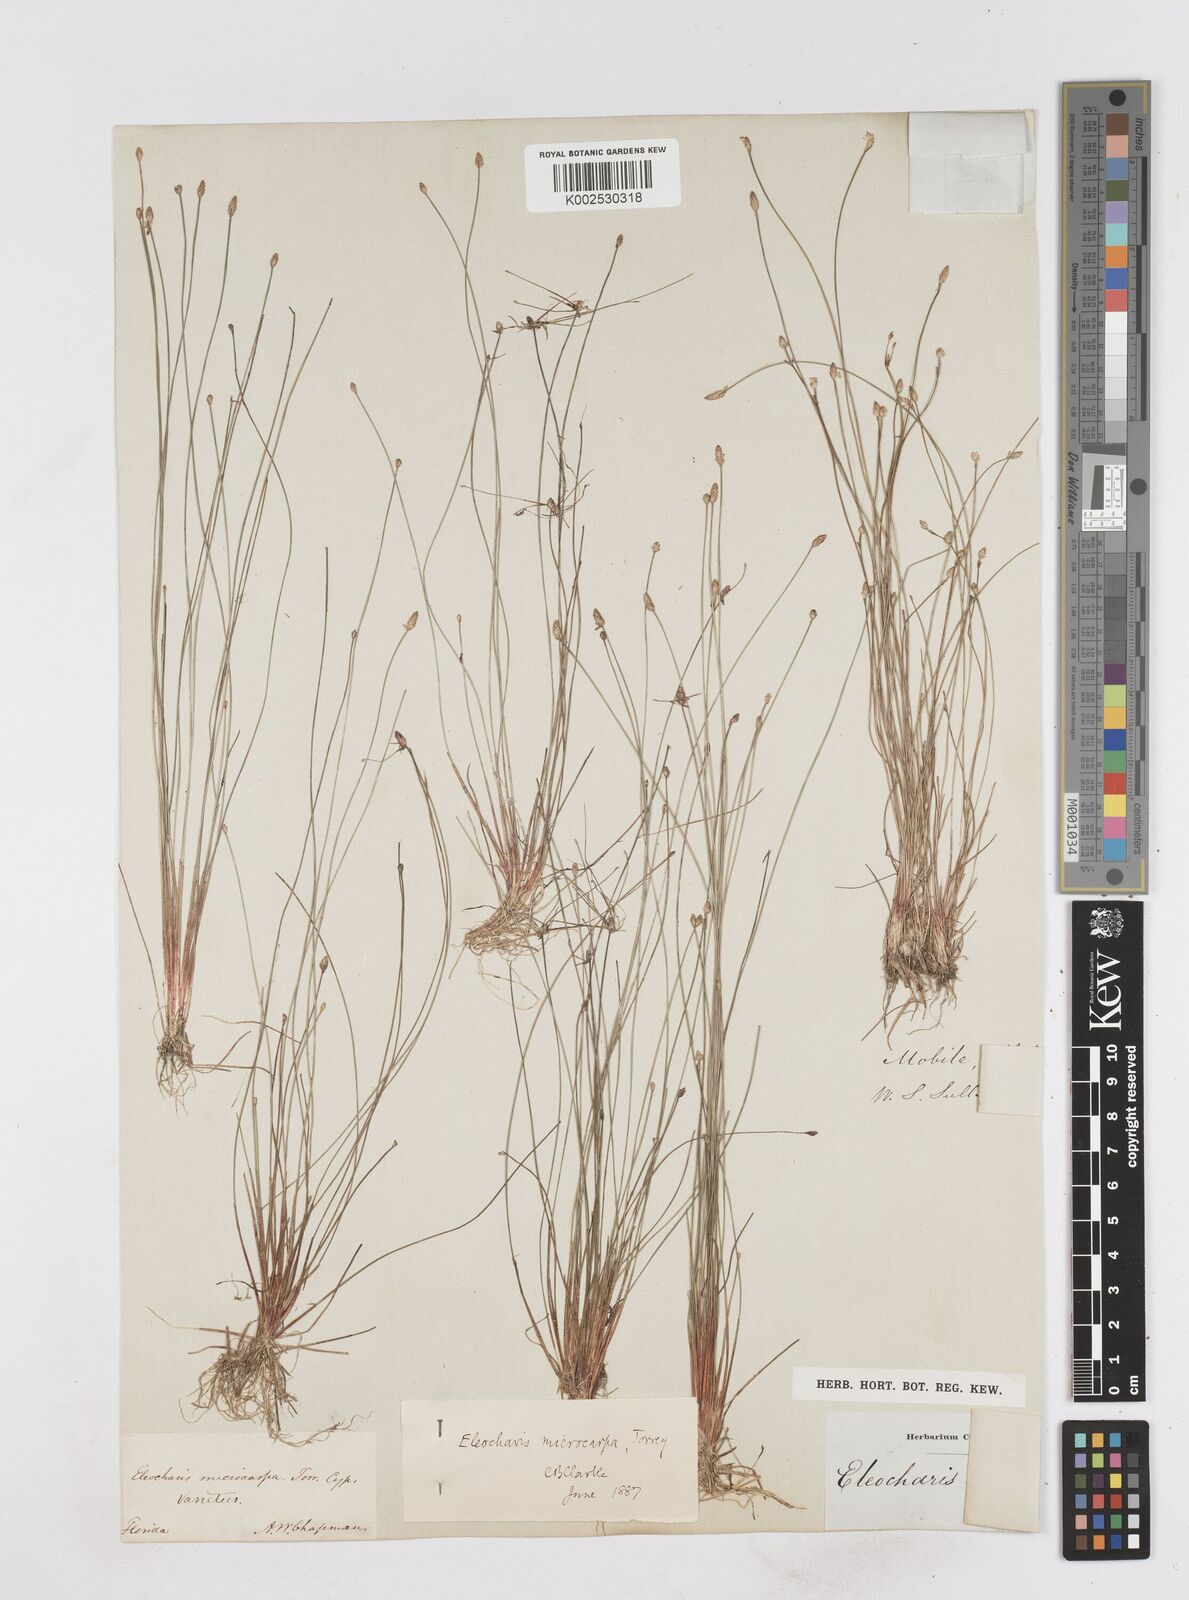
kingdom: Plantae
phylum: Tracheophyta
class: Liliopsida
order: Poales
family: Cyperaceae
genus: Eleocharis
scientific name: Eleocharis microcarpa
